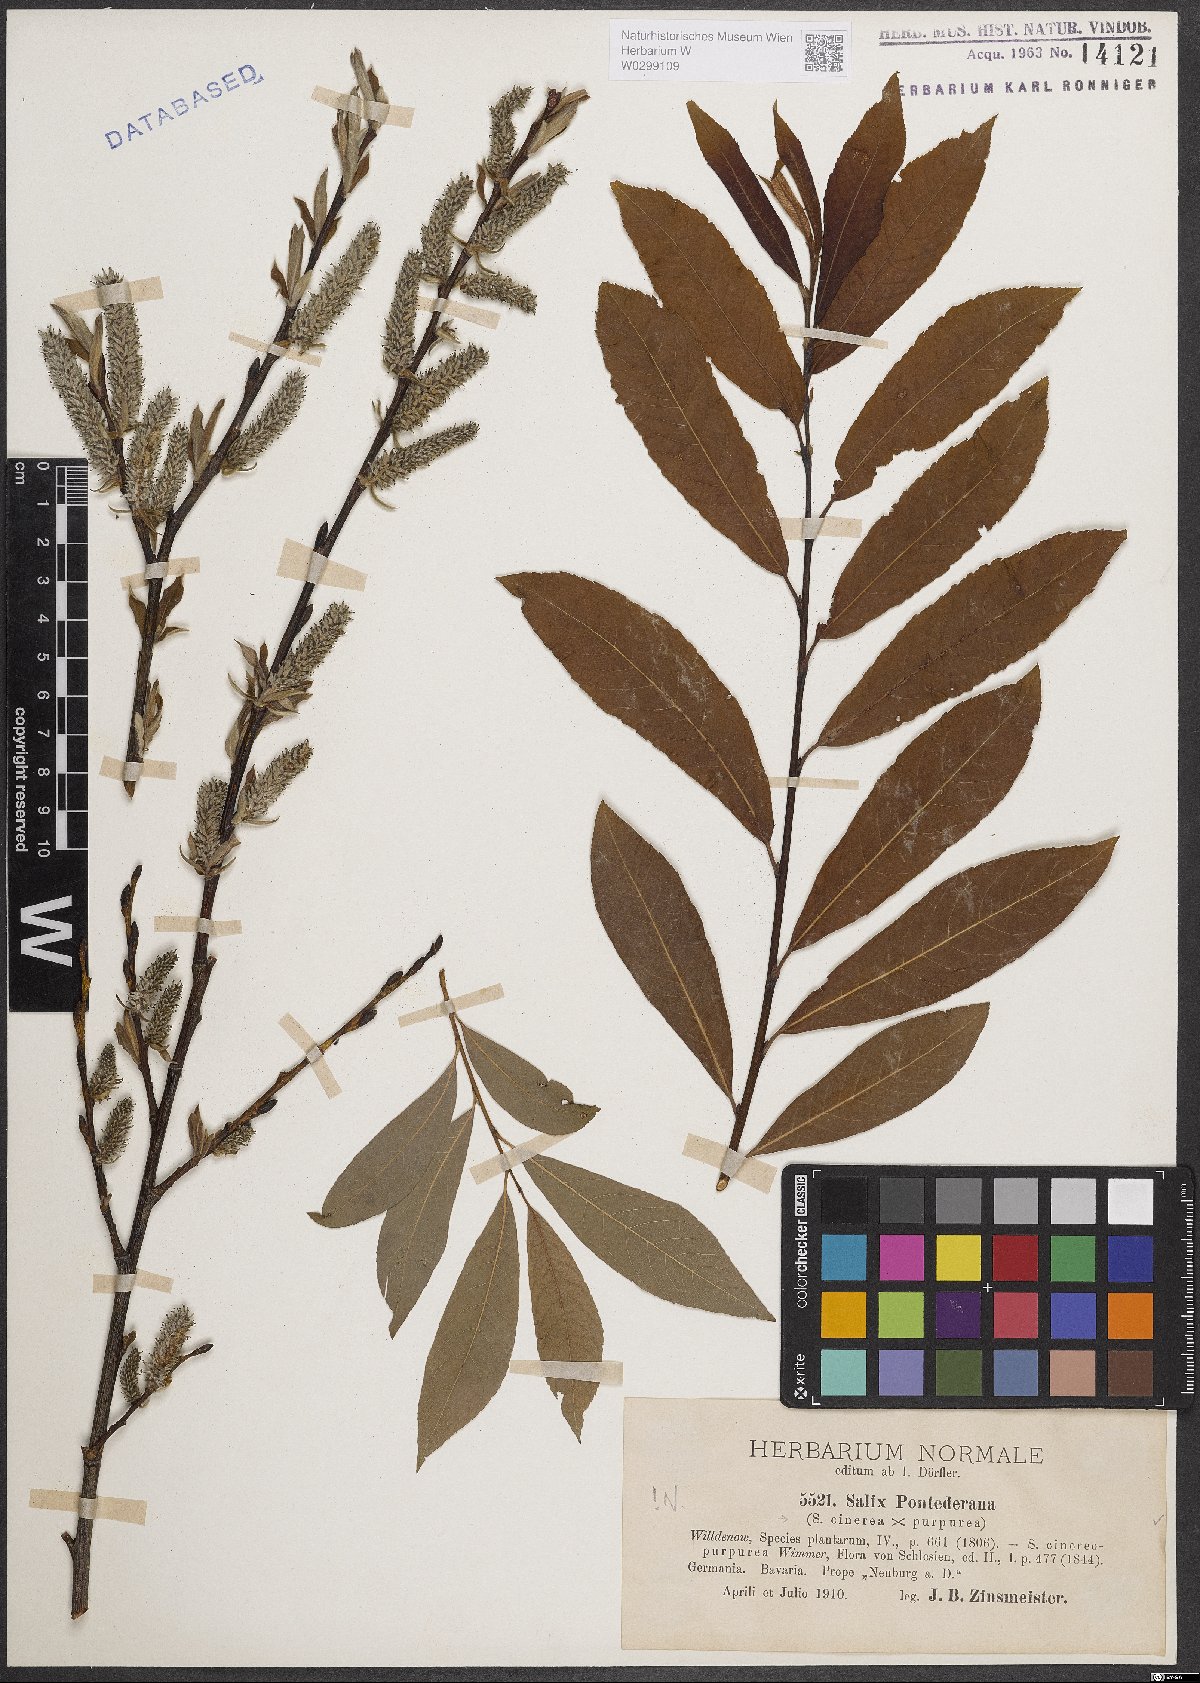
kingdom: Plantae
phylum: Tracheophyta
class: Magnoliopsida
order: Malpighiales
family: Salicaceae
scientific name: Salicaceae
